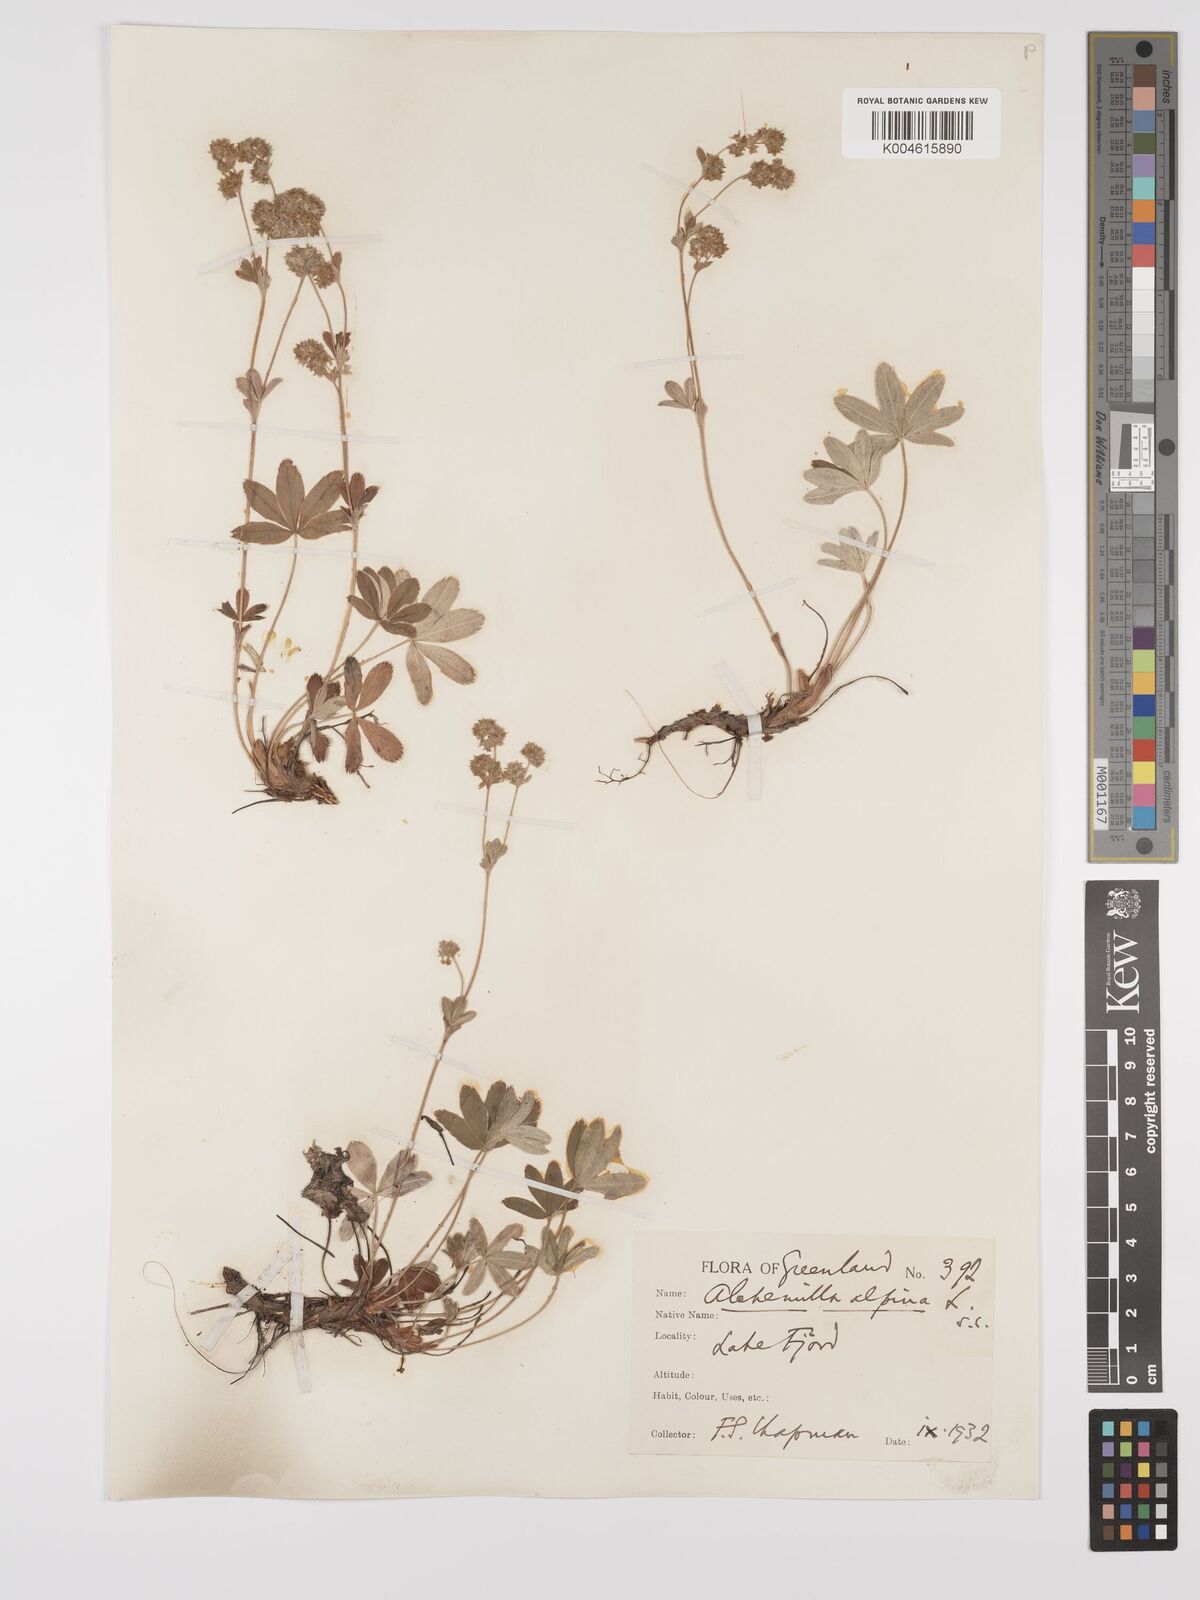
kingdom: Plantae
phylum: Tracheophyta
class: Magnoliopsida
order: Rosales
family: Rosaceae
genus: Alchemilla
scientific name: Alchemilla alpina
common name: Alpine lady's-mantle
